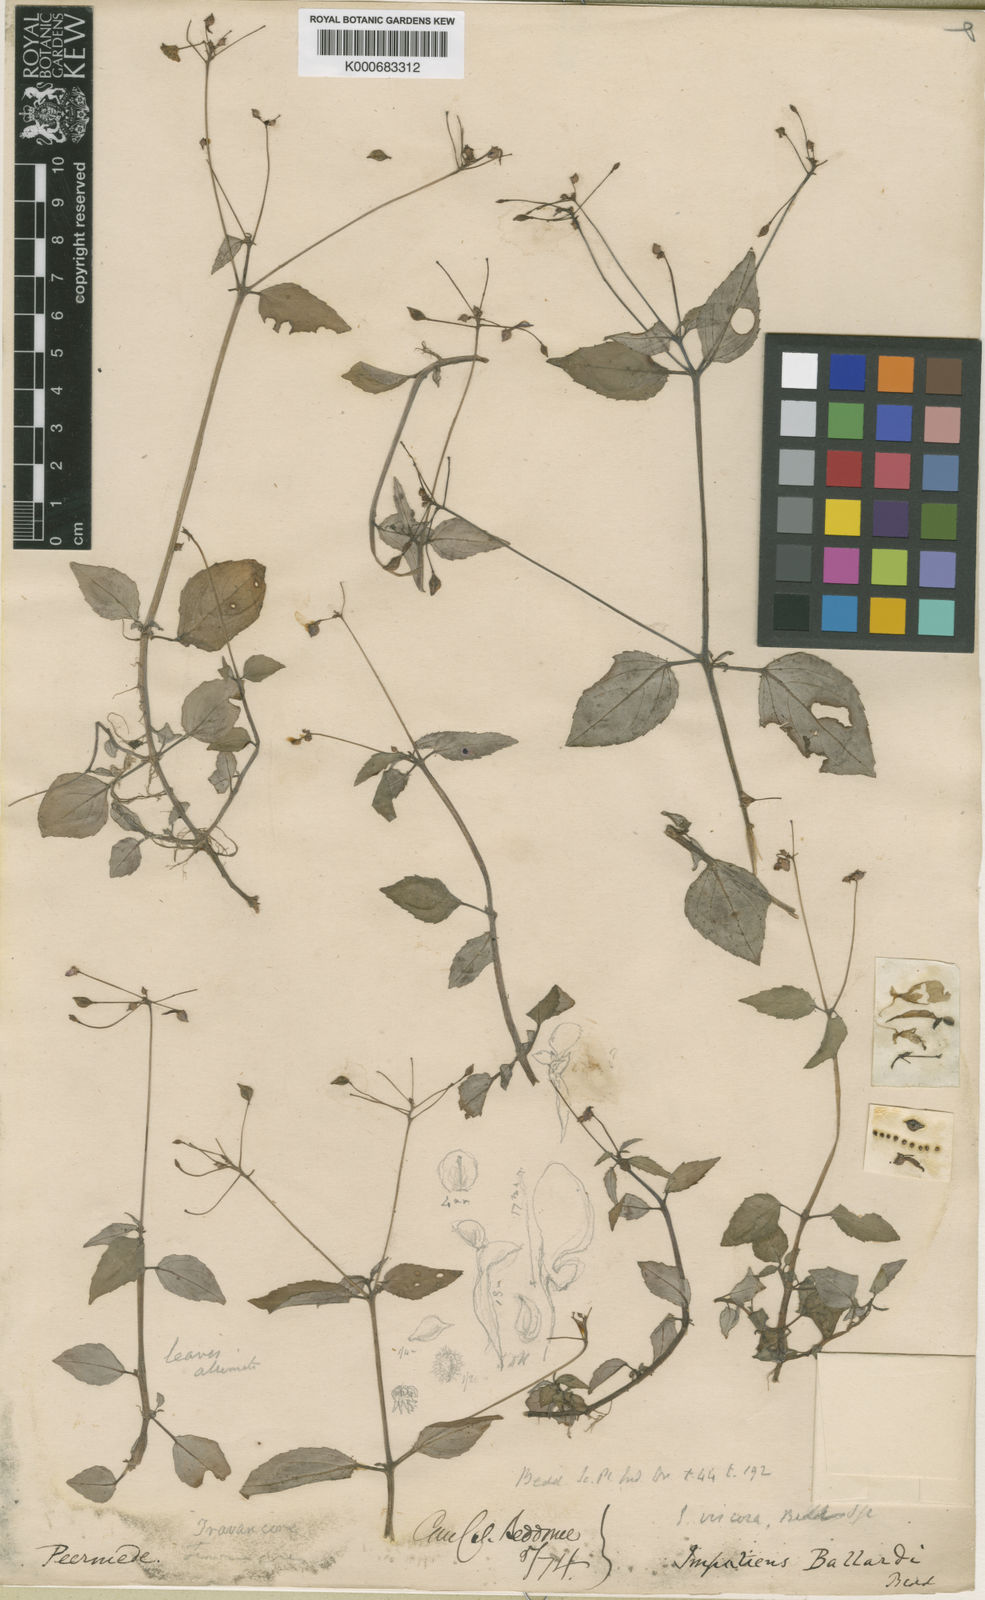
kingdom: Plantae
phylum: Tracheophyta
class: Magnoliopsida
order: Ericales
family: Balsaminaceae
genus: Impatiens
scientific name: Impatiens viscosa
